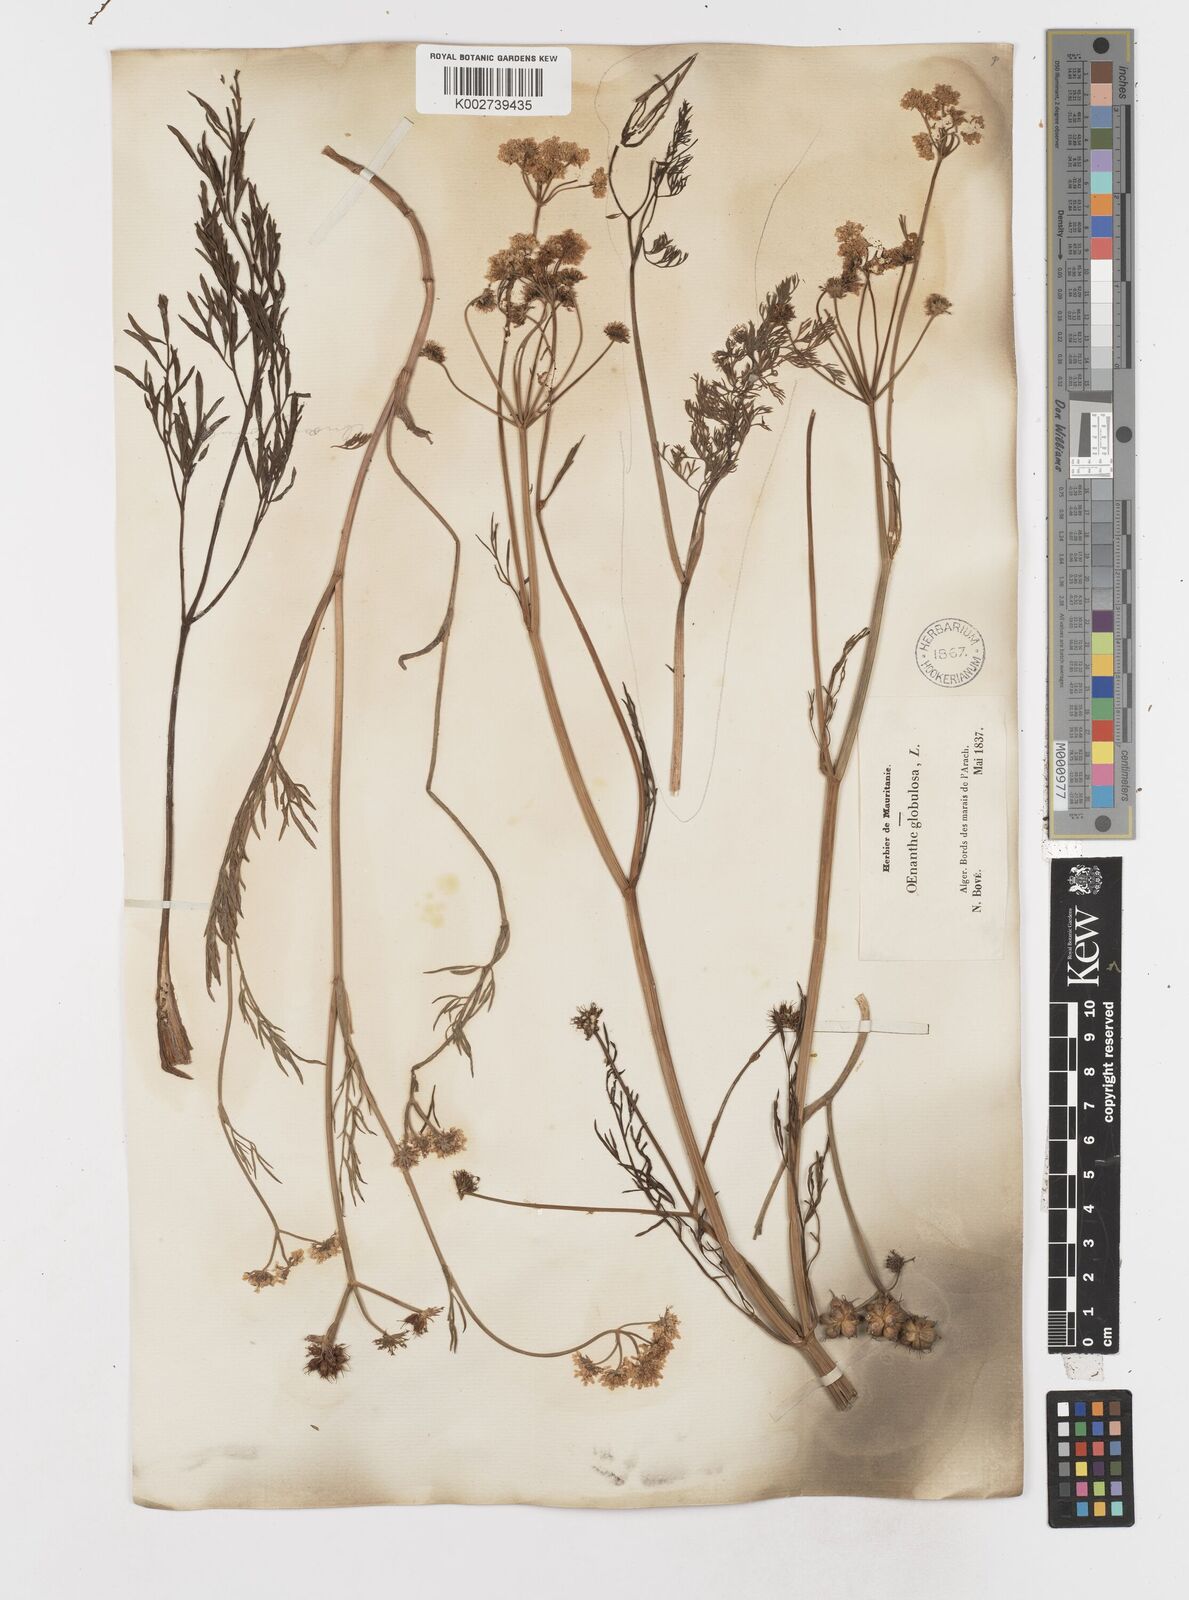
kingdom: Plantae
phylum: Tracheophyta
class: Magnoliopsida
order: Apiales
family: Apiaceae
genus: Oenanthe
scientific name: Oenanthe globulosa
